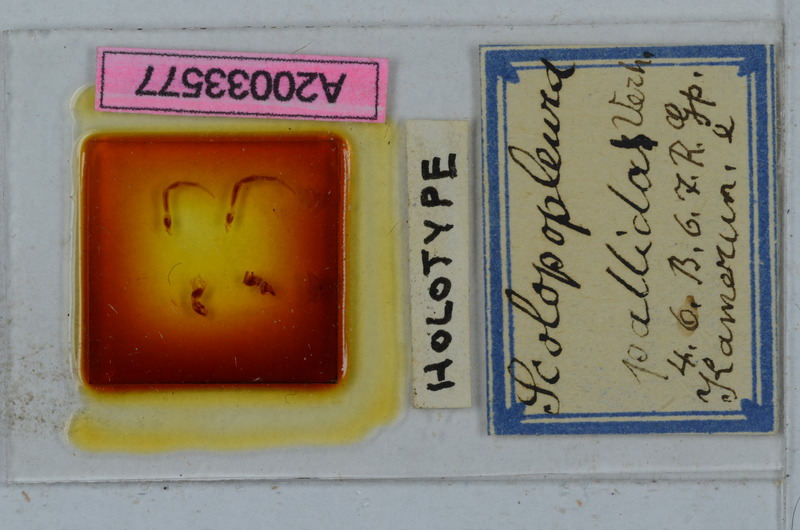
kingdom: Animalia
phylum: Arthropoda
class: Diplopoda
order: Polydesmida
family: Chelodesmidae
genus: Lipodesmus
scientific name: Lipodesmus pallida
